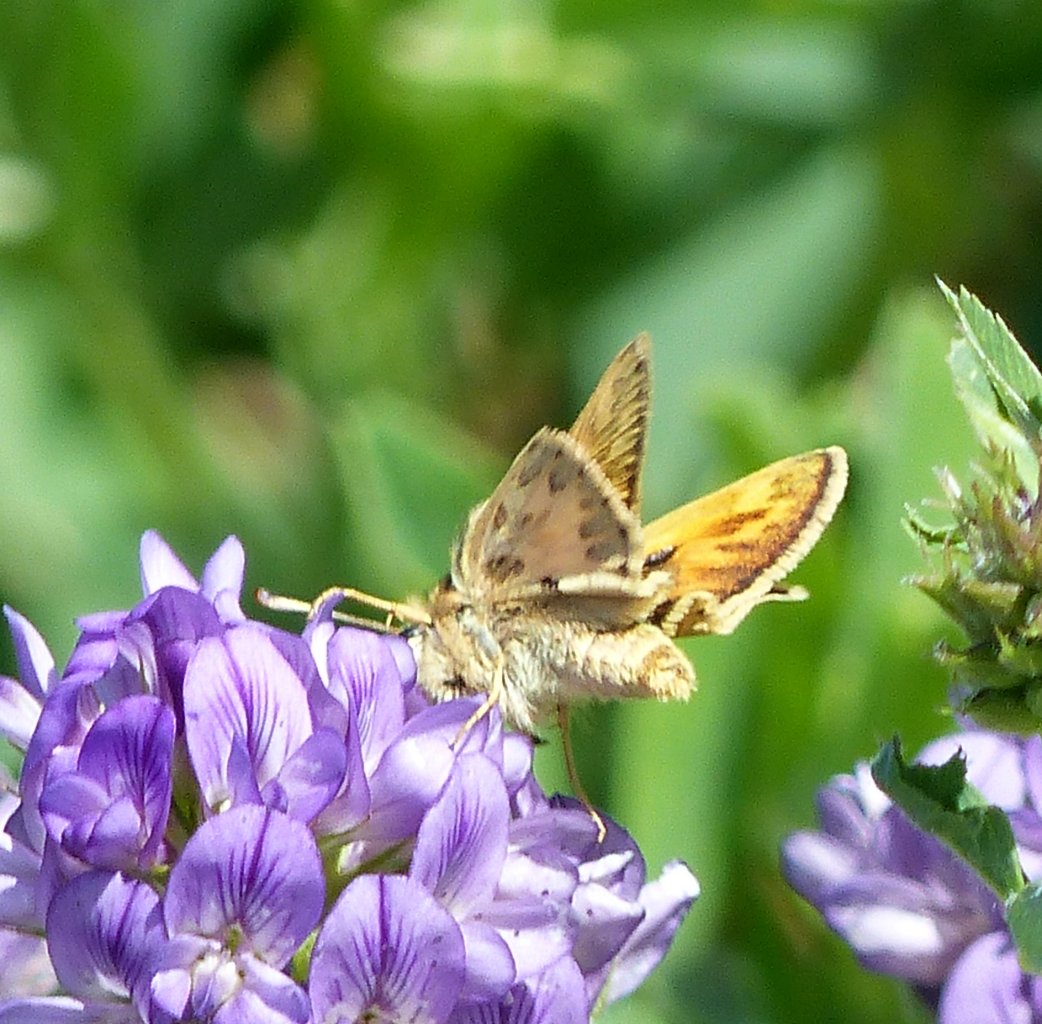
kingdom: Animalia
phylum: Arthropoda
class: Insecta
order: Lepidoptera
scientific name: Lepidoptera
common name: Butterflies
